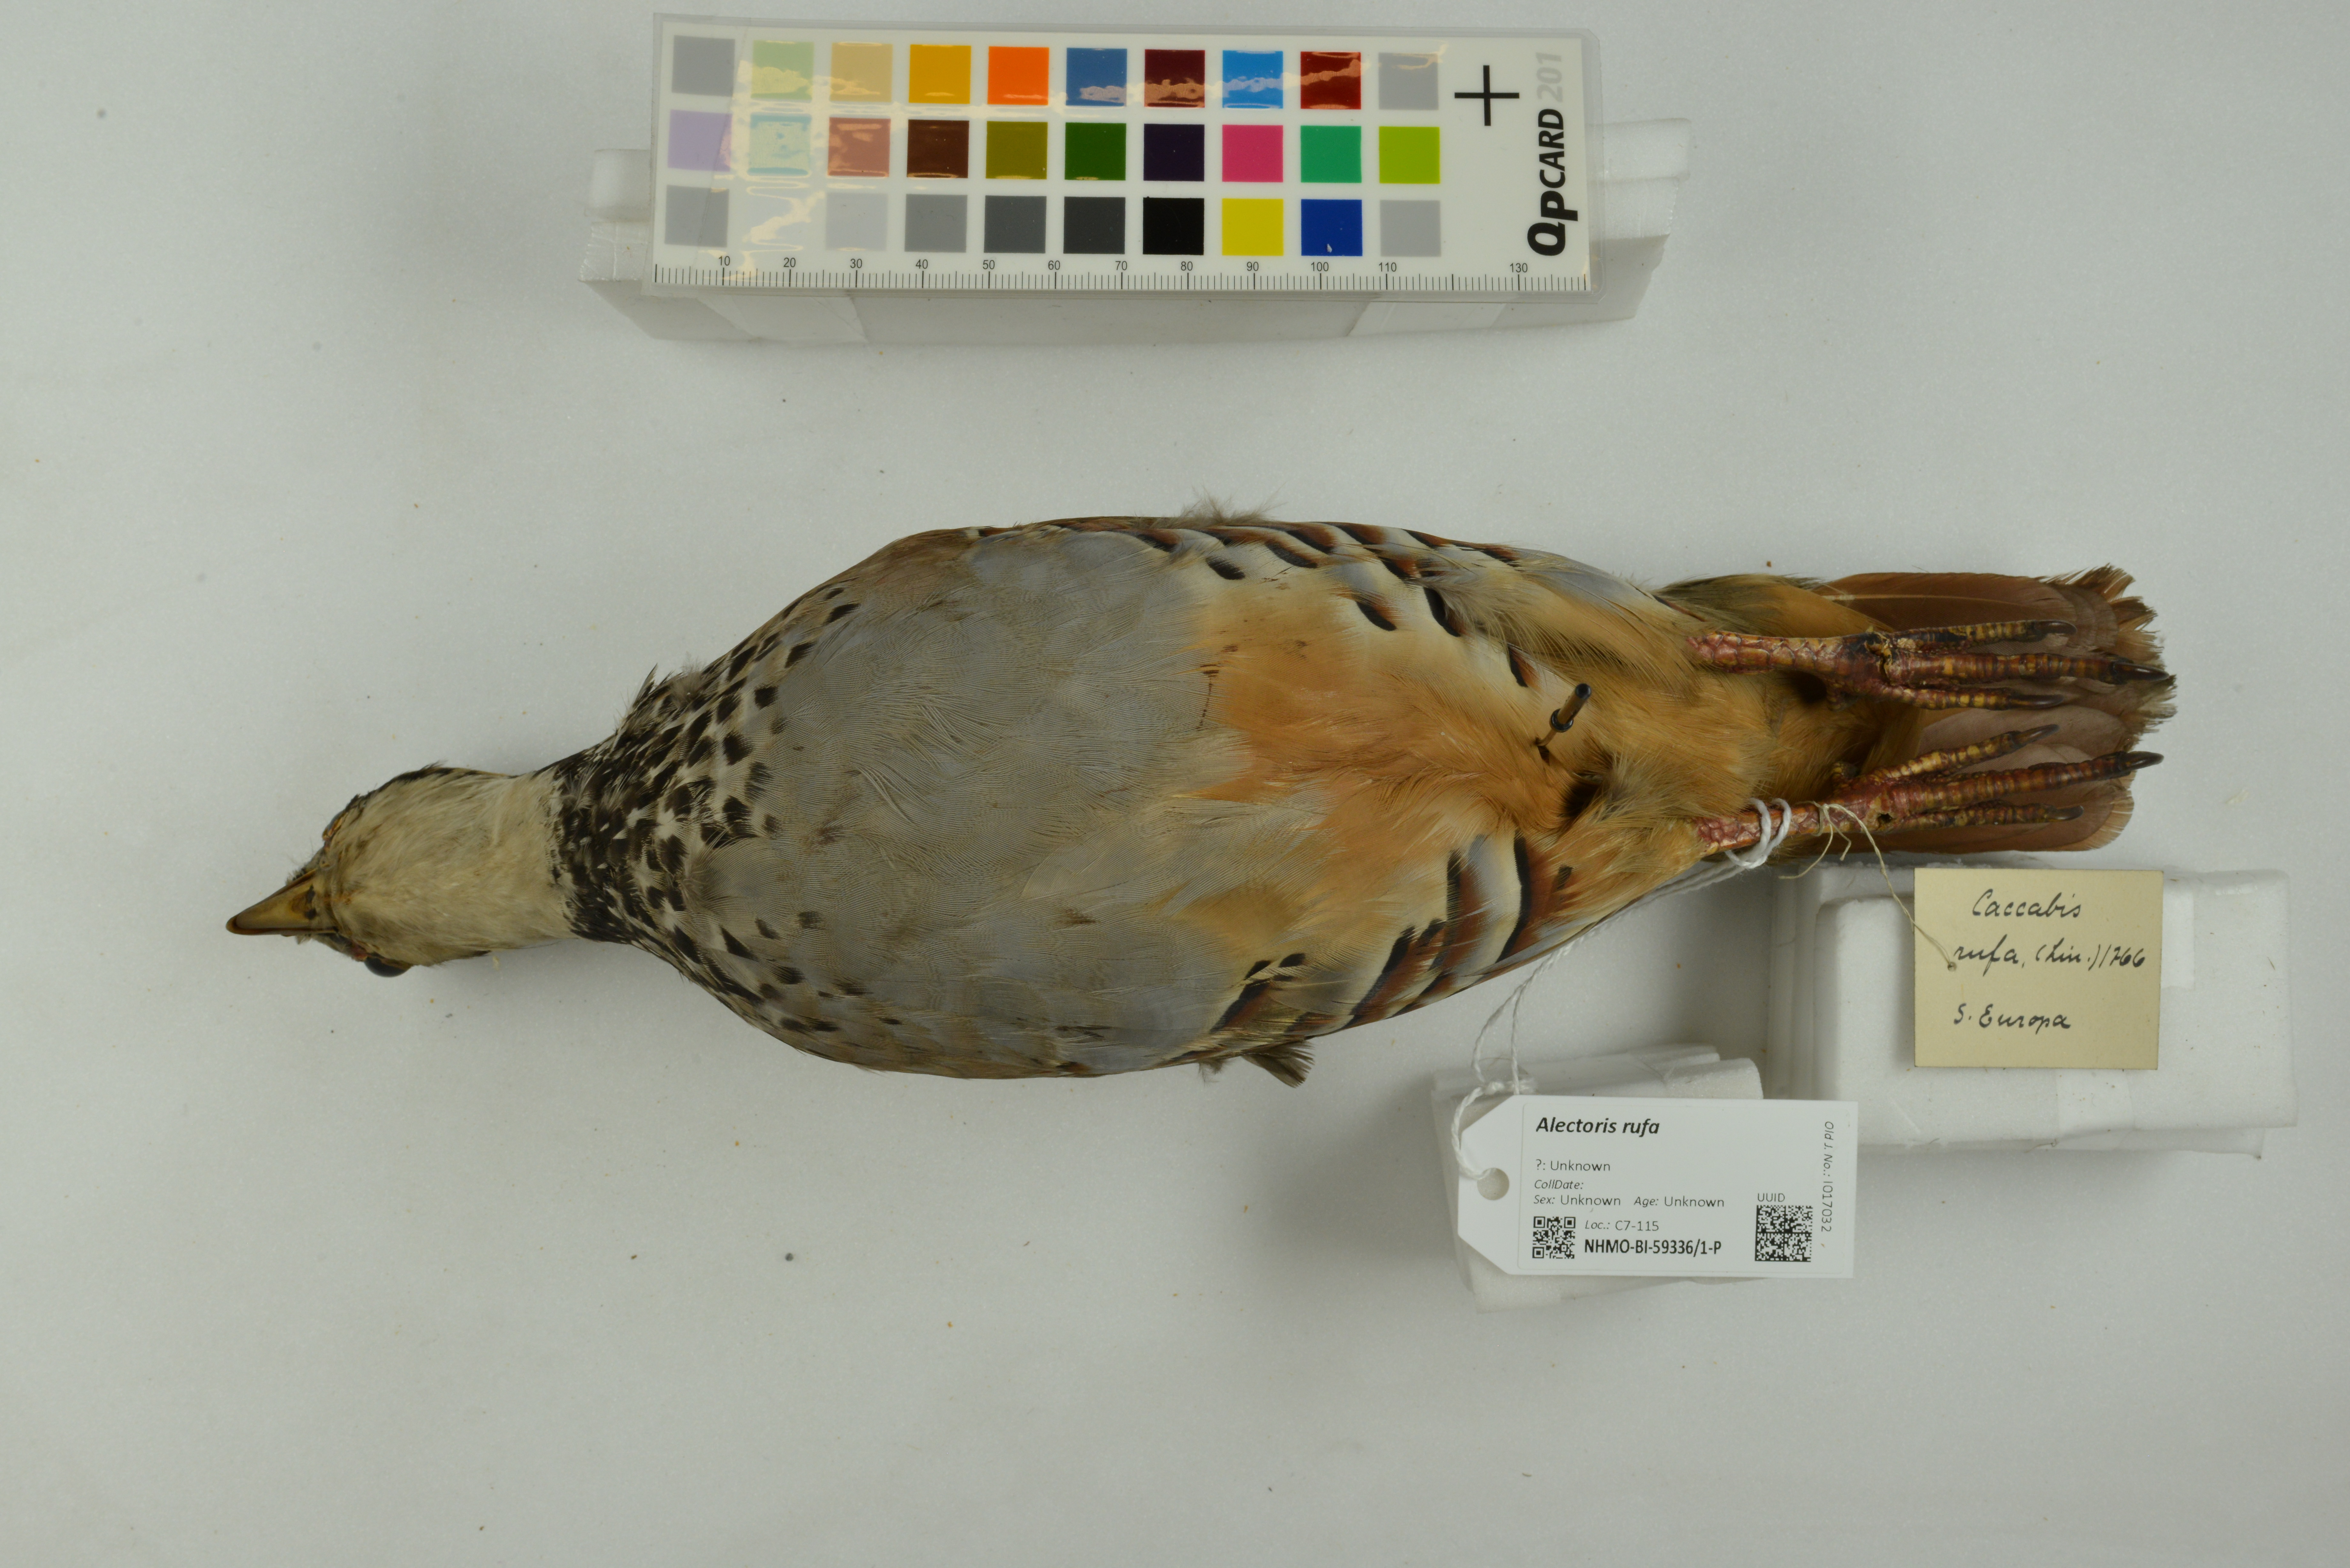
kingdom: Animalia
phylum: Chordata
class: Aves
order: Galliformes
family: Phasianidae
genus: Alectoris
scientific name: Alectoris rufa
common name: Red-legged partridge
